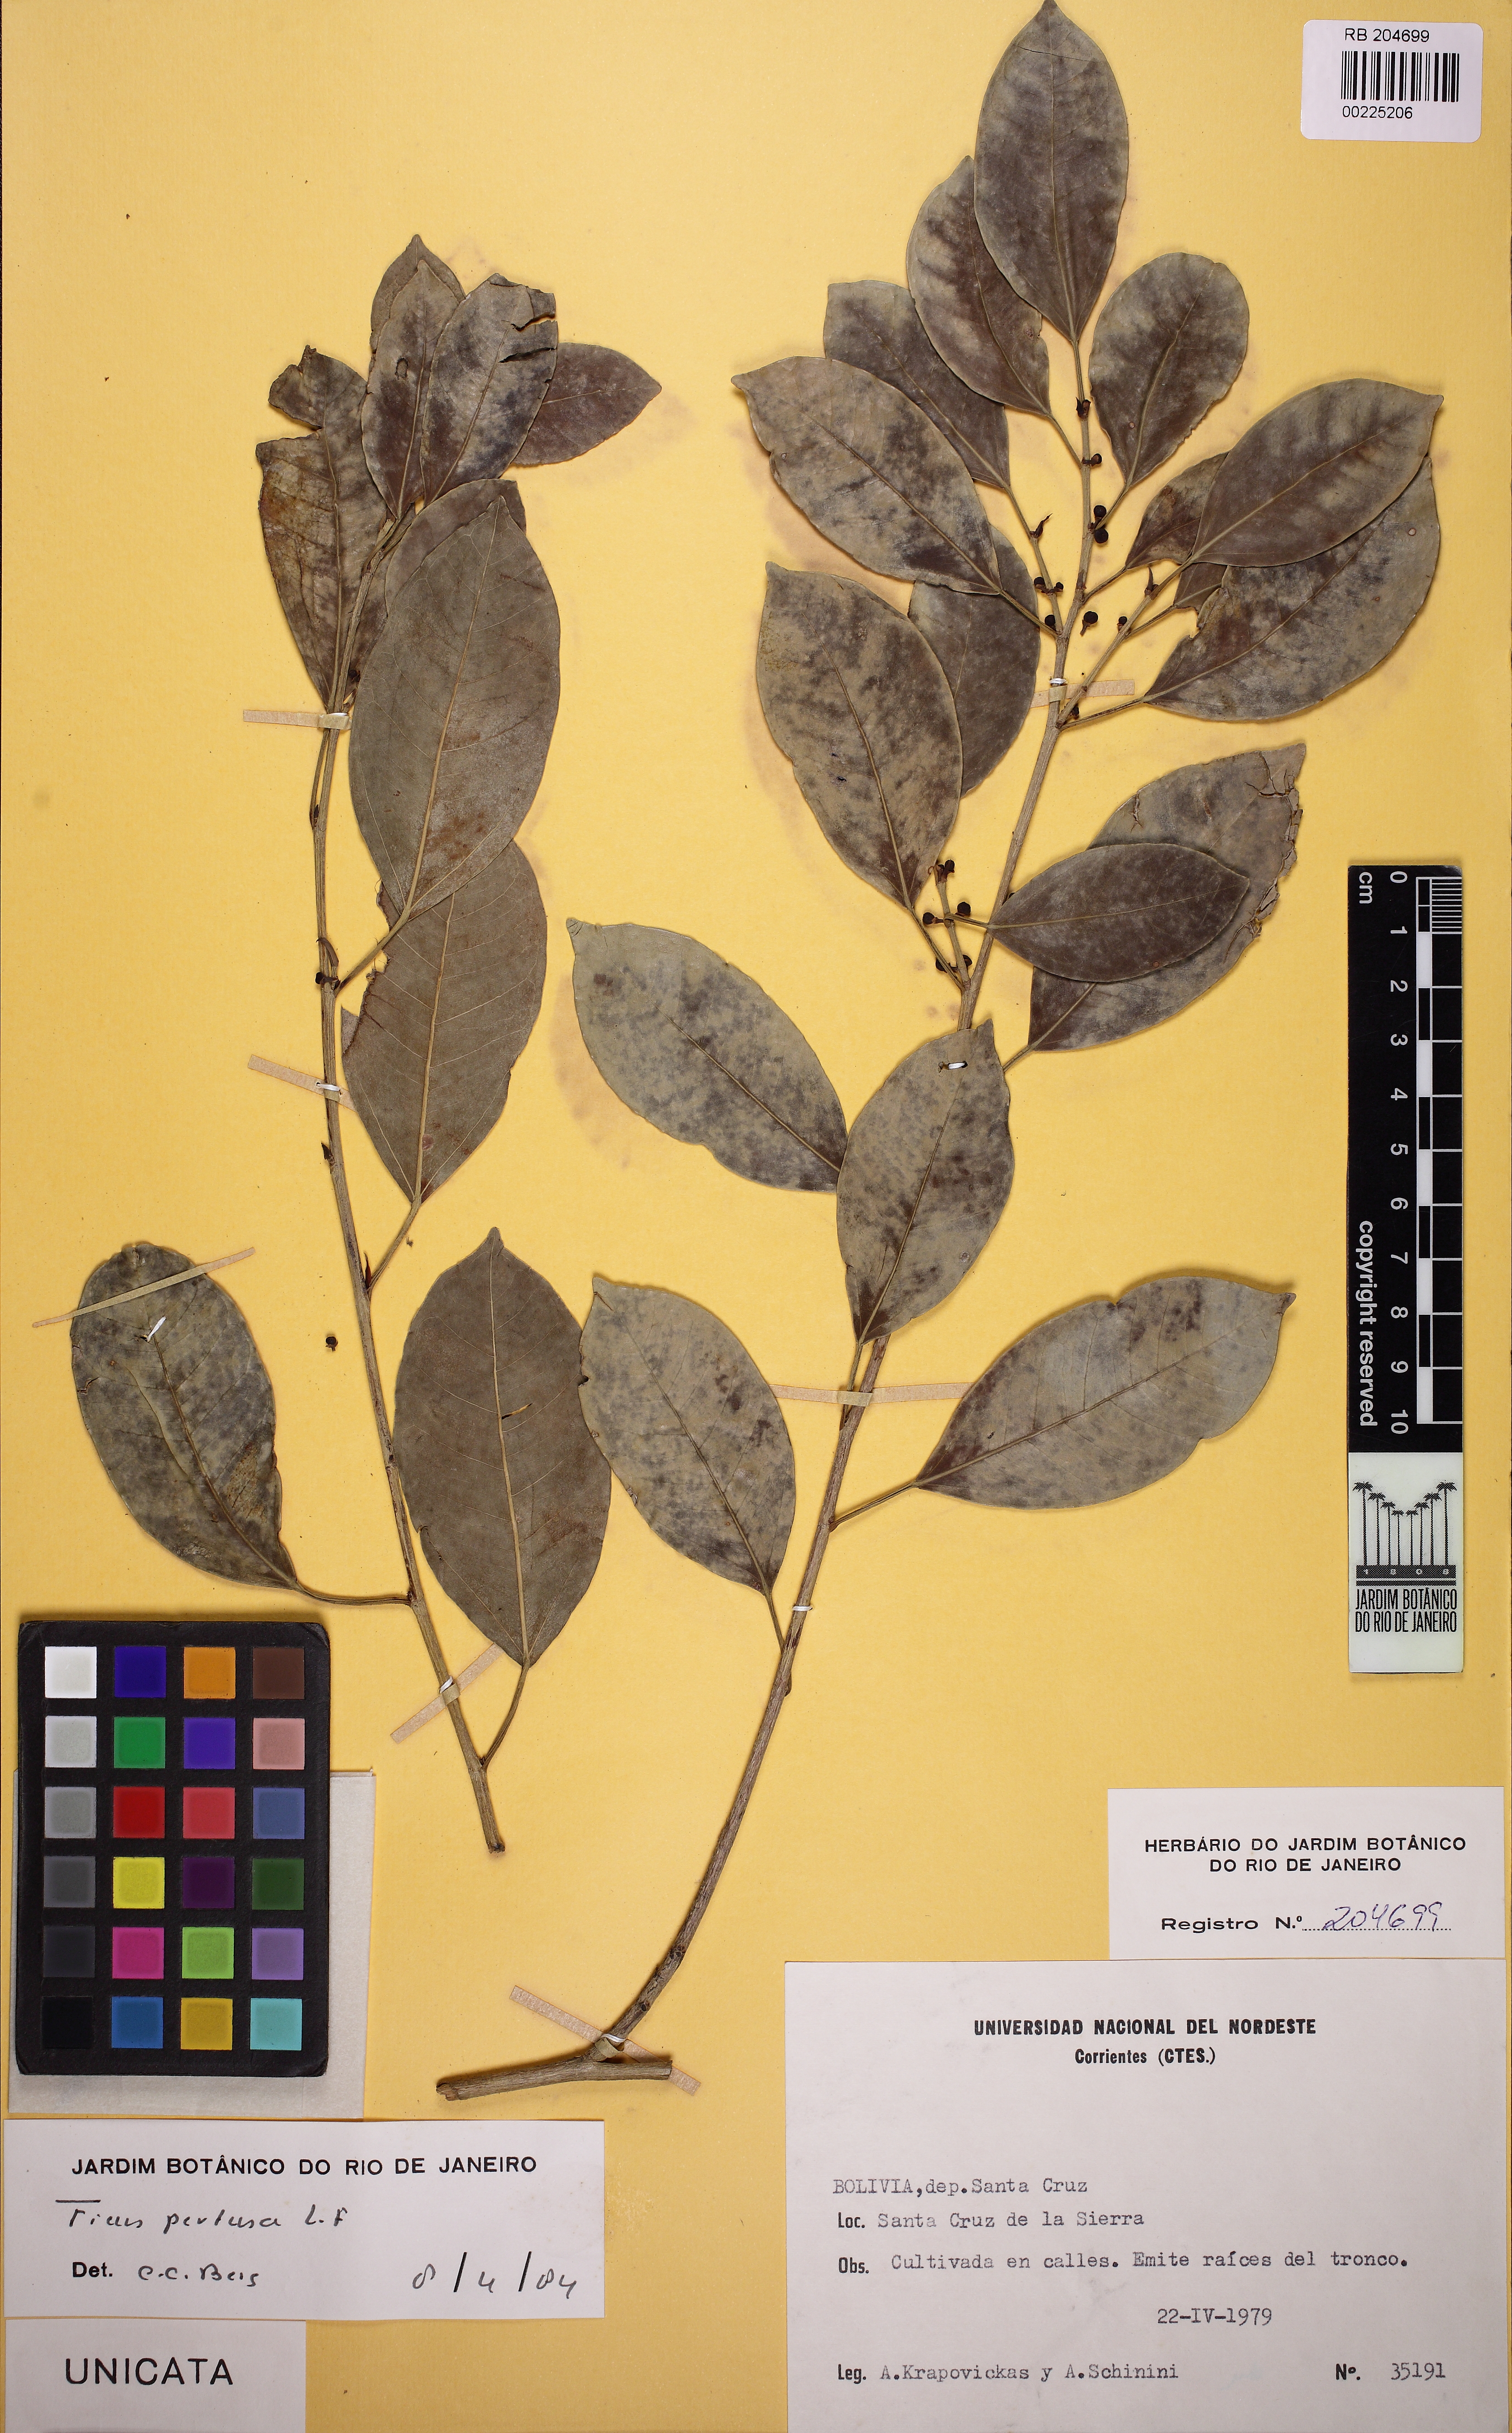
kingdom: Plantae
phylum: Tracheophyta
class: Magnoliopsida
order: Rosales
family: Moraceae
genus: Ficus
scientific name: Ficus pertusa
